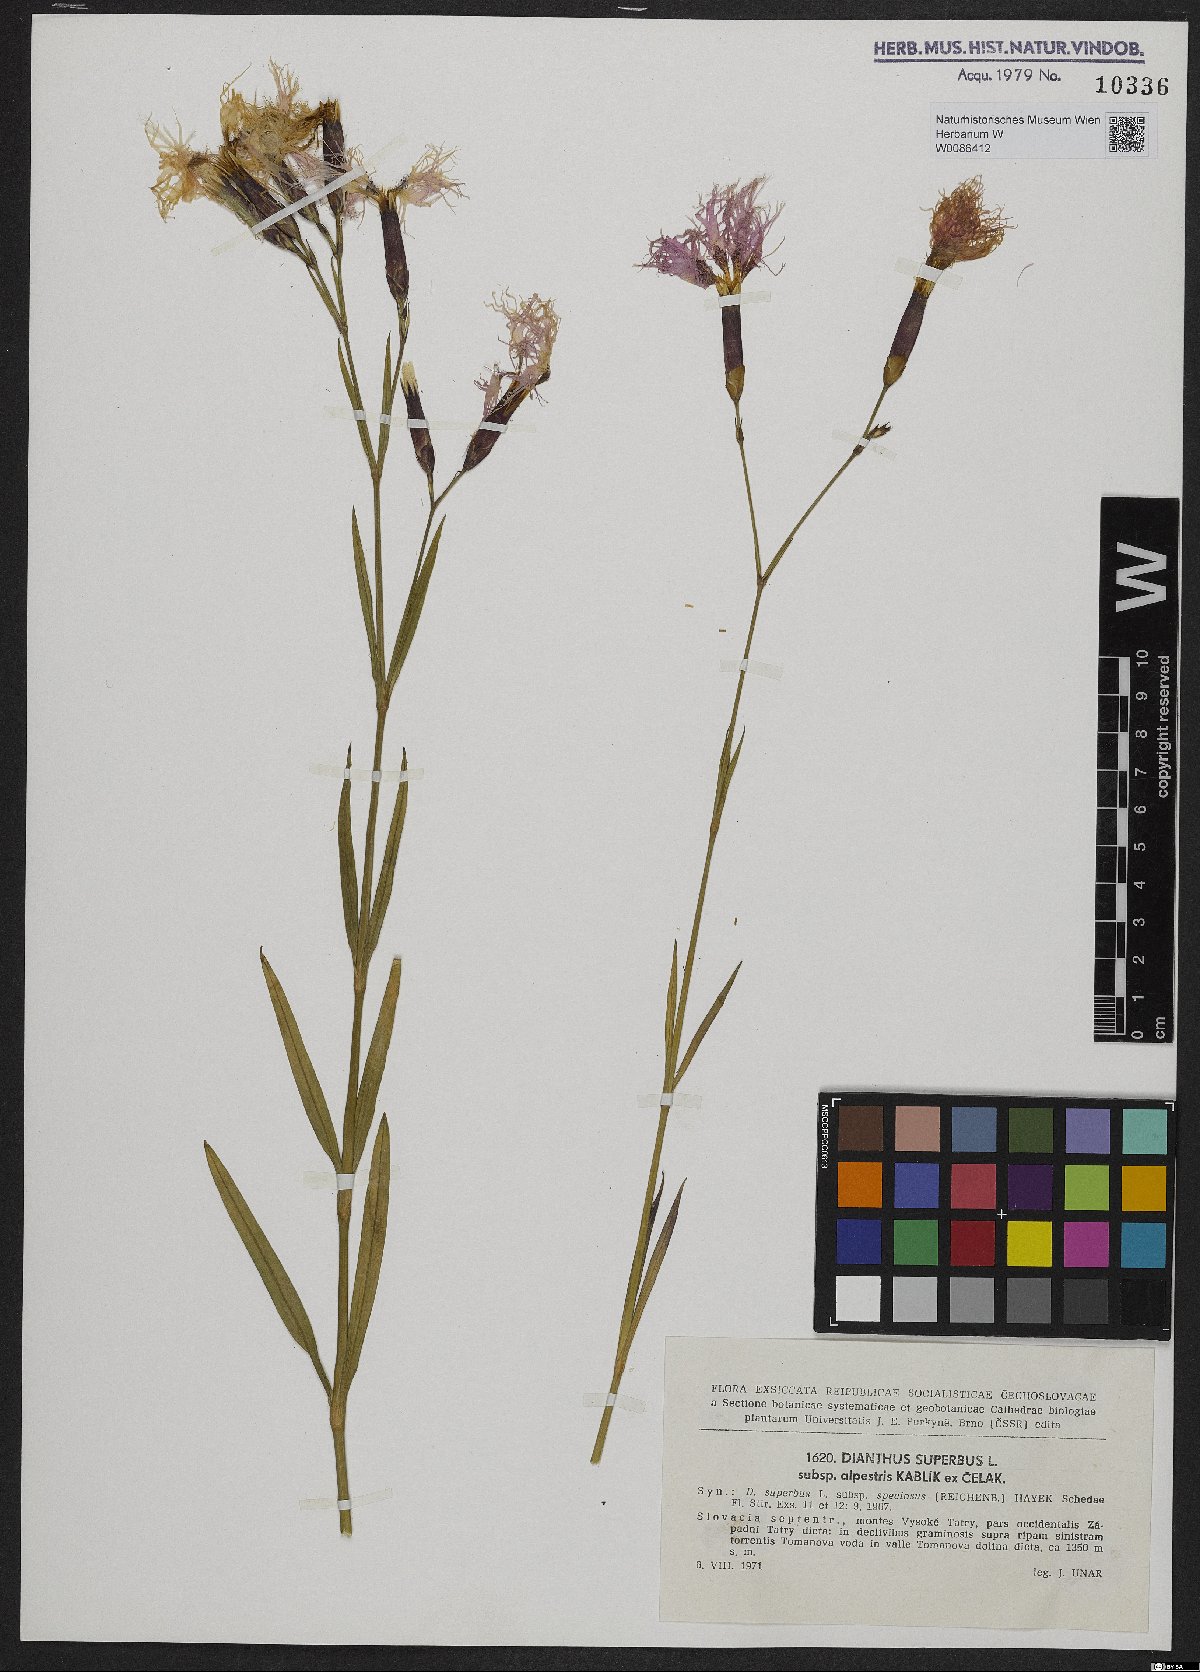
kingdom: Plantae
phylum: Tracheophyta
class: Magnoliopsida
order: Caryophyllales
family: Caryophyllaceae
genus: Dianthus
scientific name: Dianthus superbus
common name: Fringed pink
